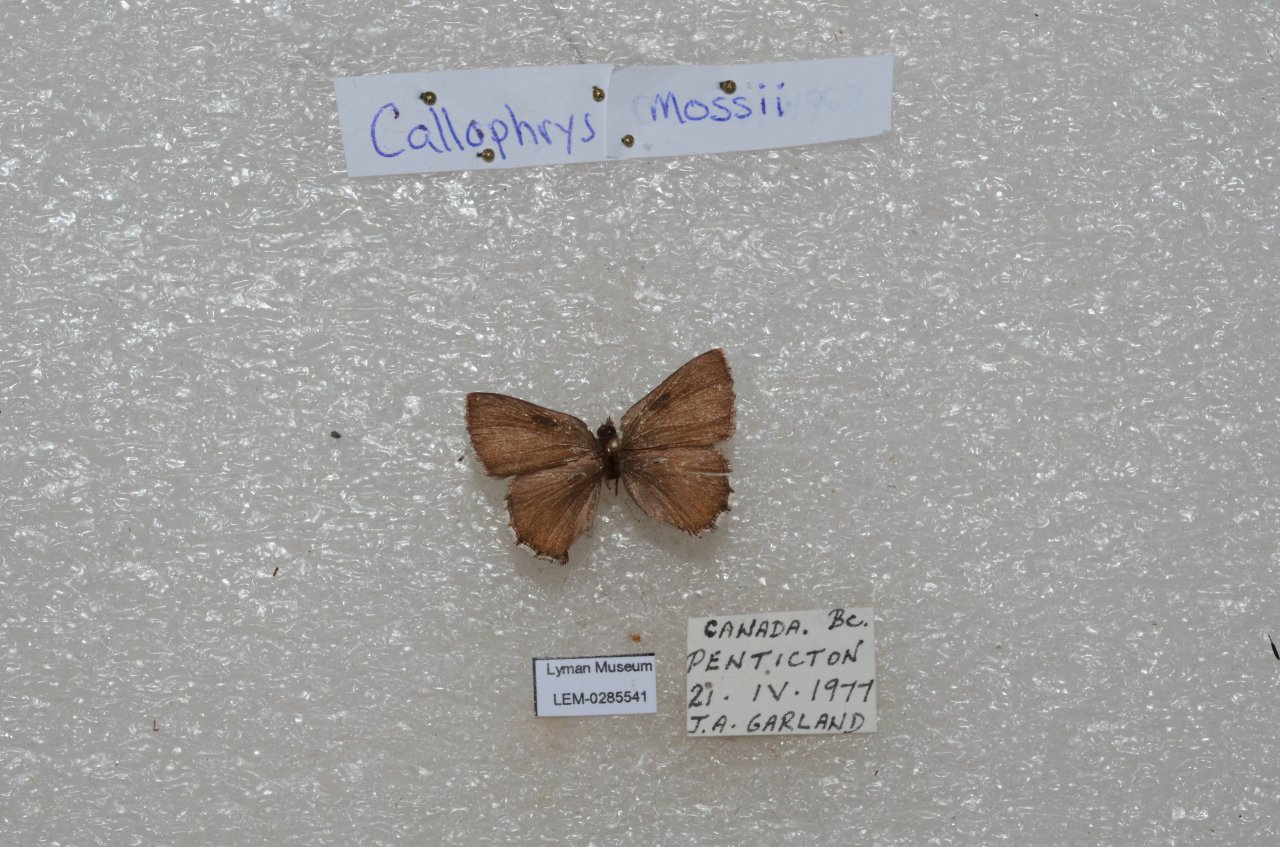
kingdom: Animalia
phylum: Arthropoda
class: Insecta
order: Lepidoptera
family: Lycaenidae
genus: Callophrys
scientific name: Callophrys mossii
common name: Moss' Elfin
